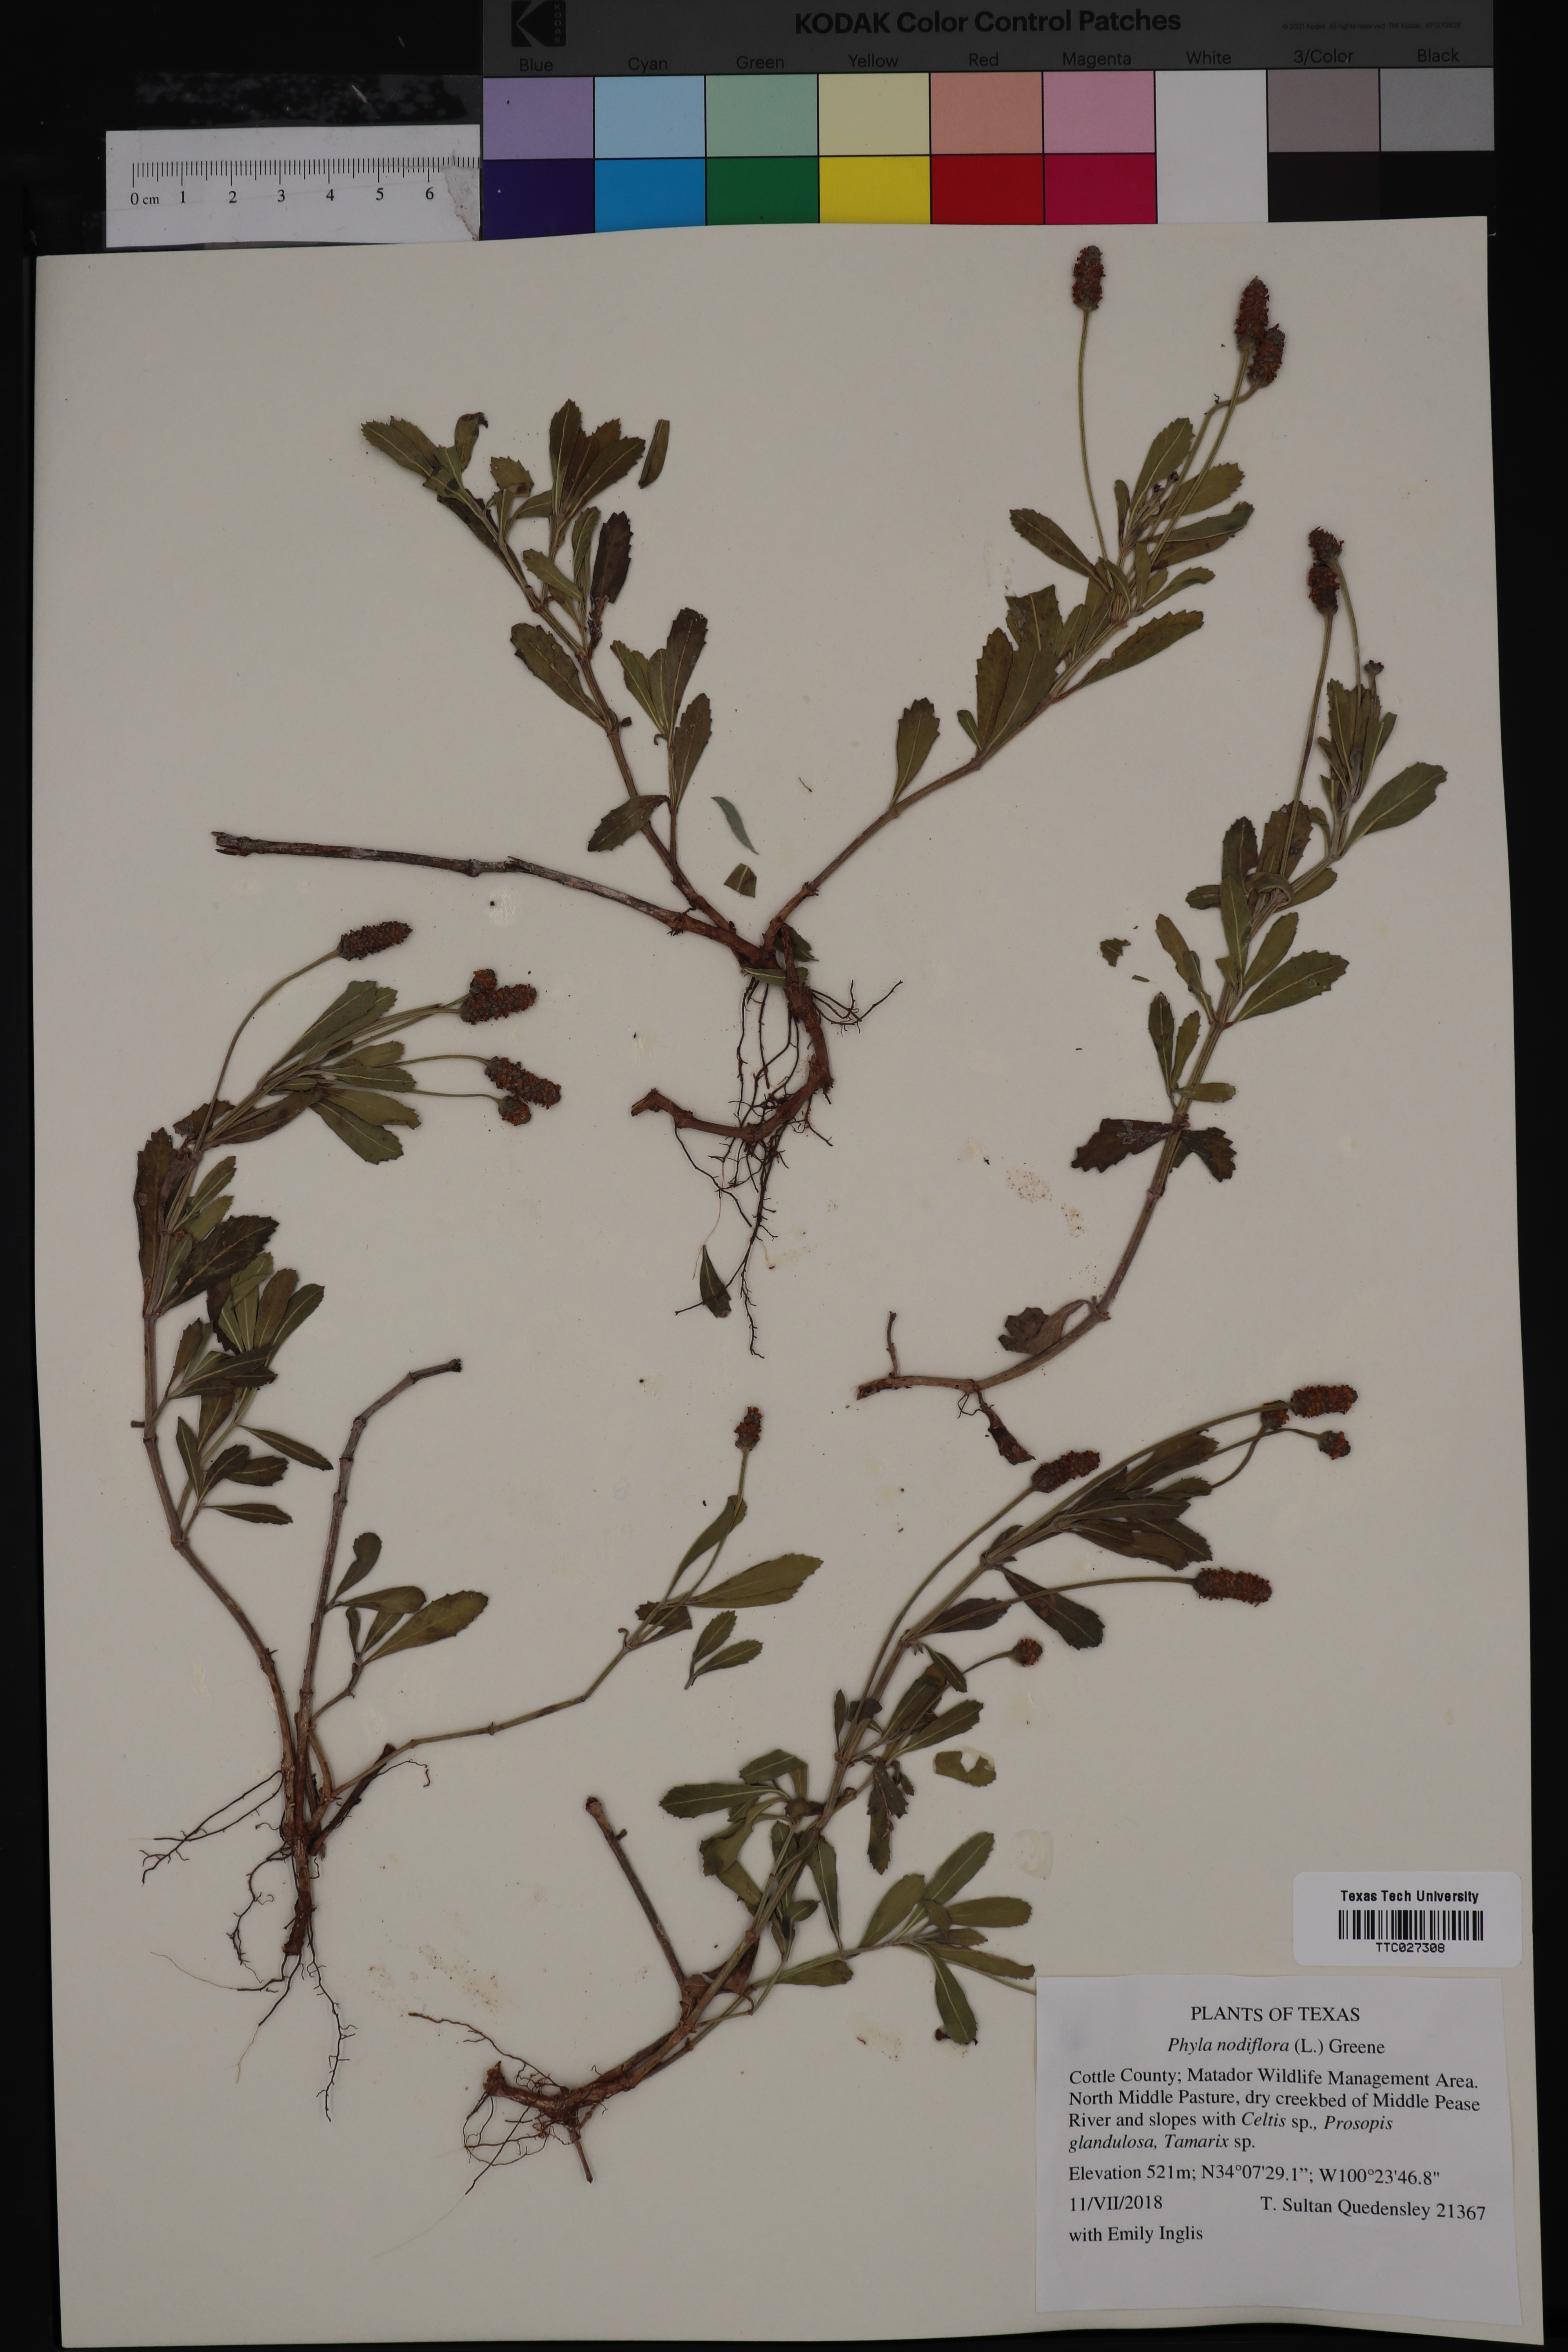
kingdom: Plantae
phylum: Tracheophyta
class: Magnoliopsida
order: Lamiales
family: Verbenaceae
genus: Phyla
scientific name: Phyla nodiflora
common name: Frogfruit
